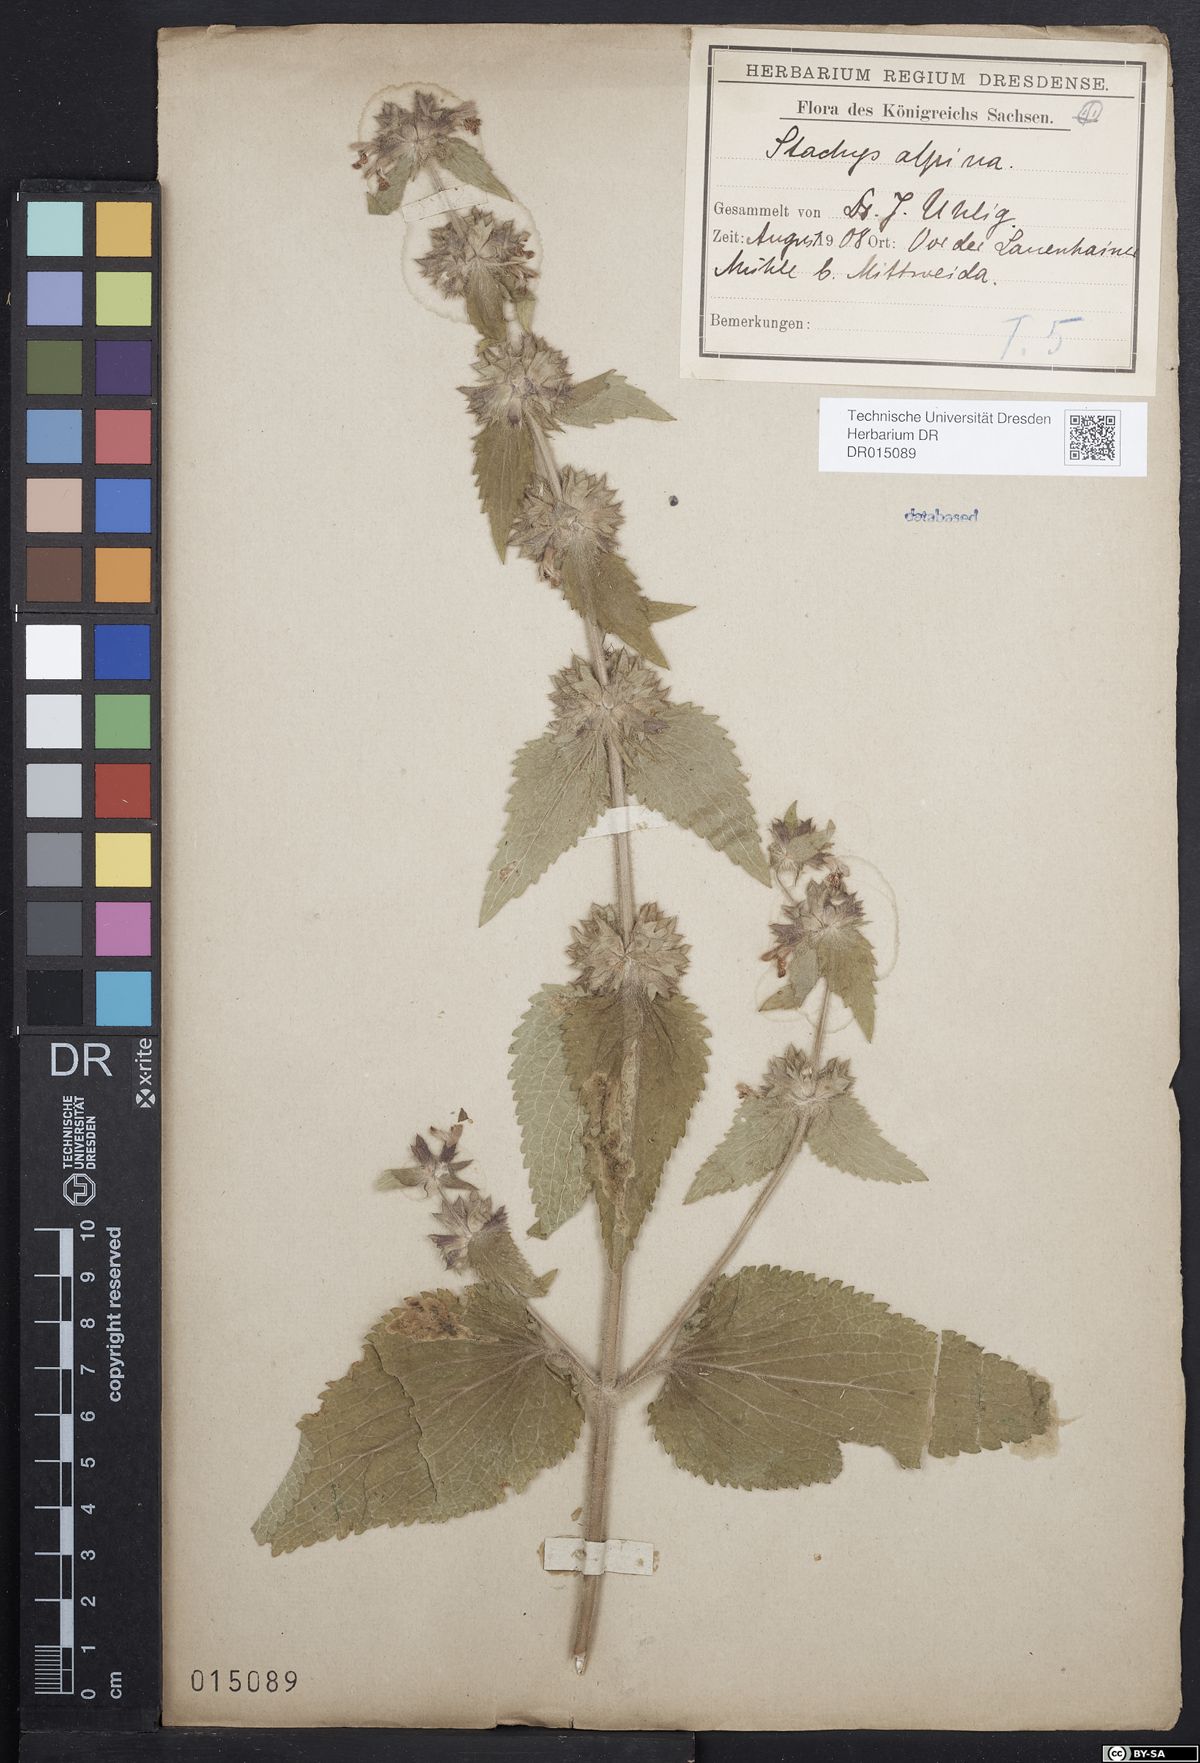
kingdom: Plantae
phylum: Tracheophyta
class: Magnoliopsida
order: Lamiales
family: Lamiaceae
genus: Stachys
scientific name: Stachys alpina
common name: Limestone woundwort
